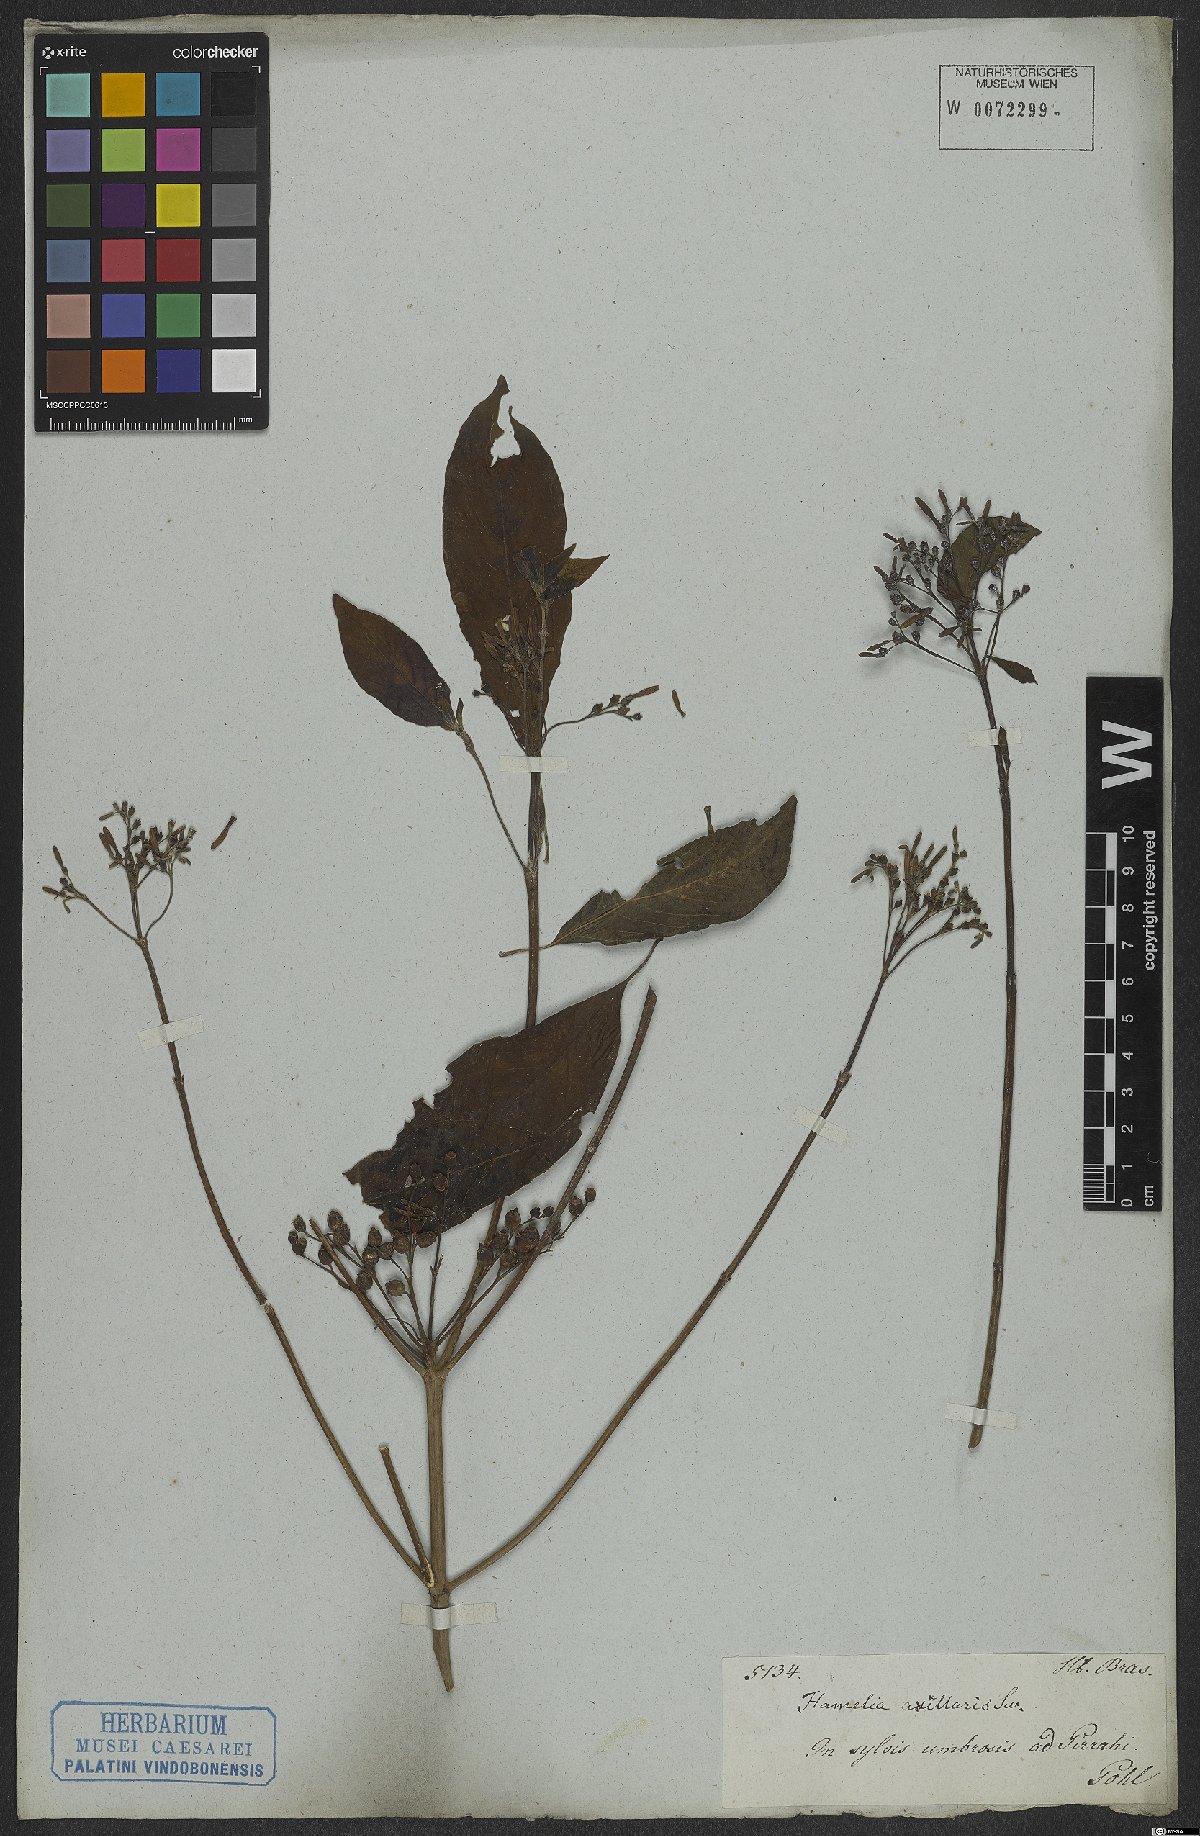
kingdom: Plantae
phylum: Tracheophyta
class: Magnoliopsida
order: Gentianales
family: Rubiaceae
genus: Hamelia
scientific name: Hamelia axillaris
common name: Balsamillo
